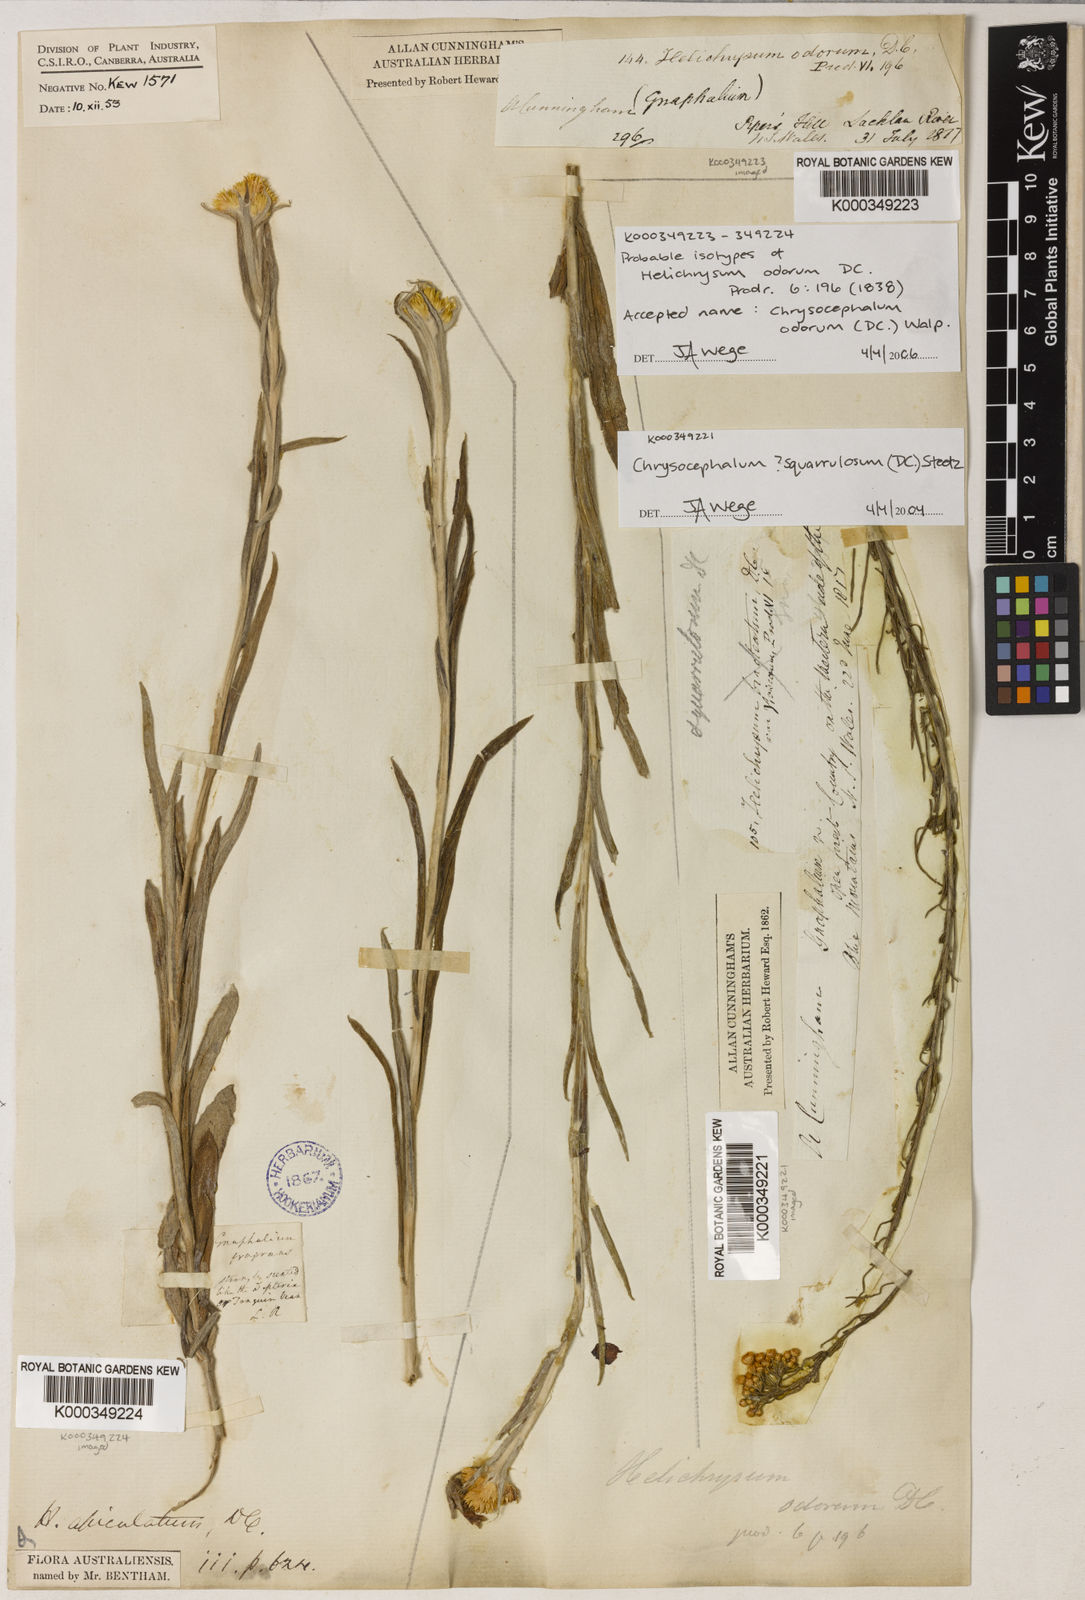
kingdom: Plantae
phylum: Tracheophyta
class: Magnoliopsida
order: Asterales
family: Asteraceae
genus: Chrysocephalum
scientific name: Chrysocephalum apiculatum
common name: Common everlasting
